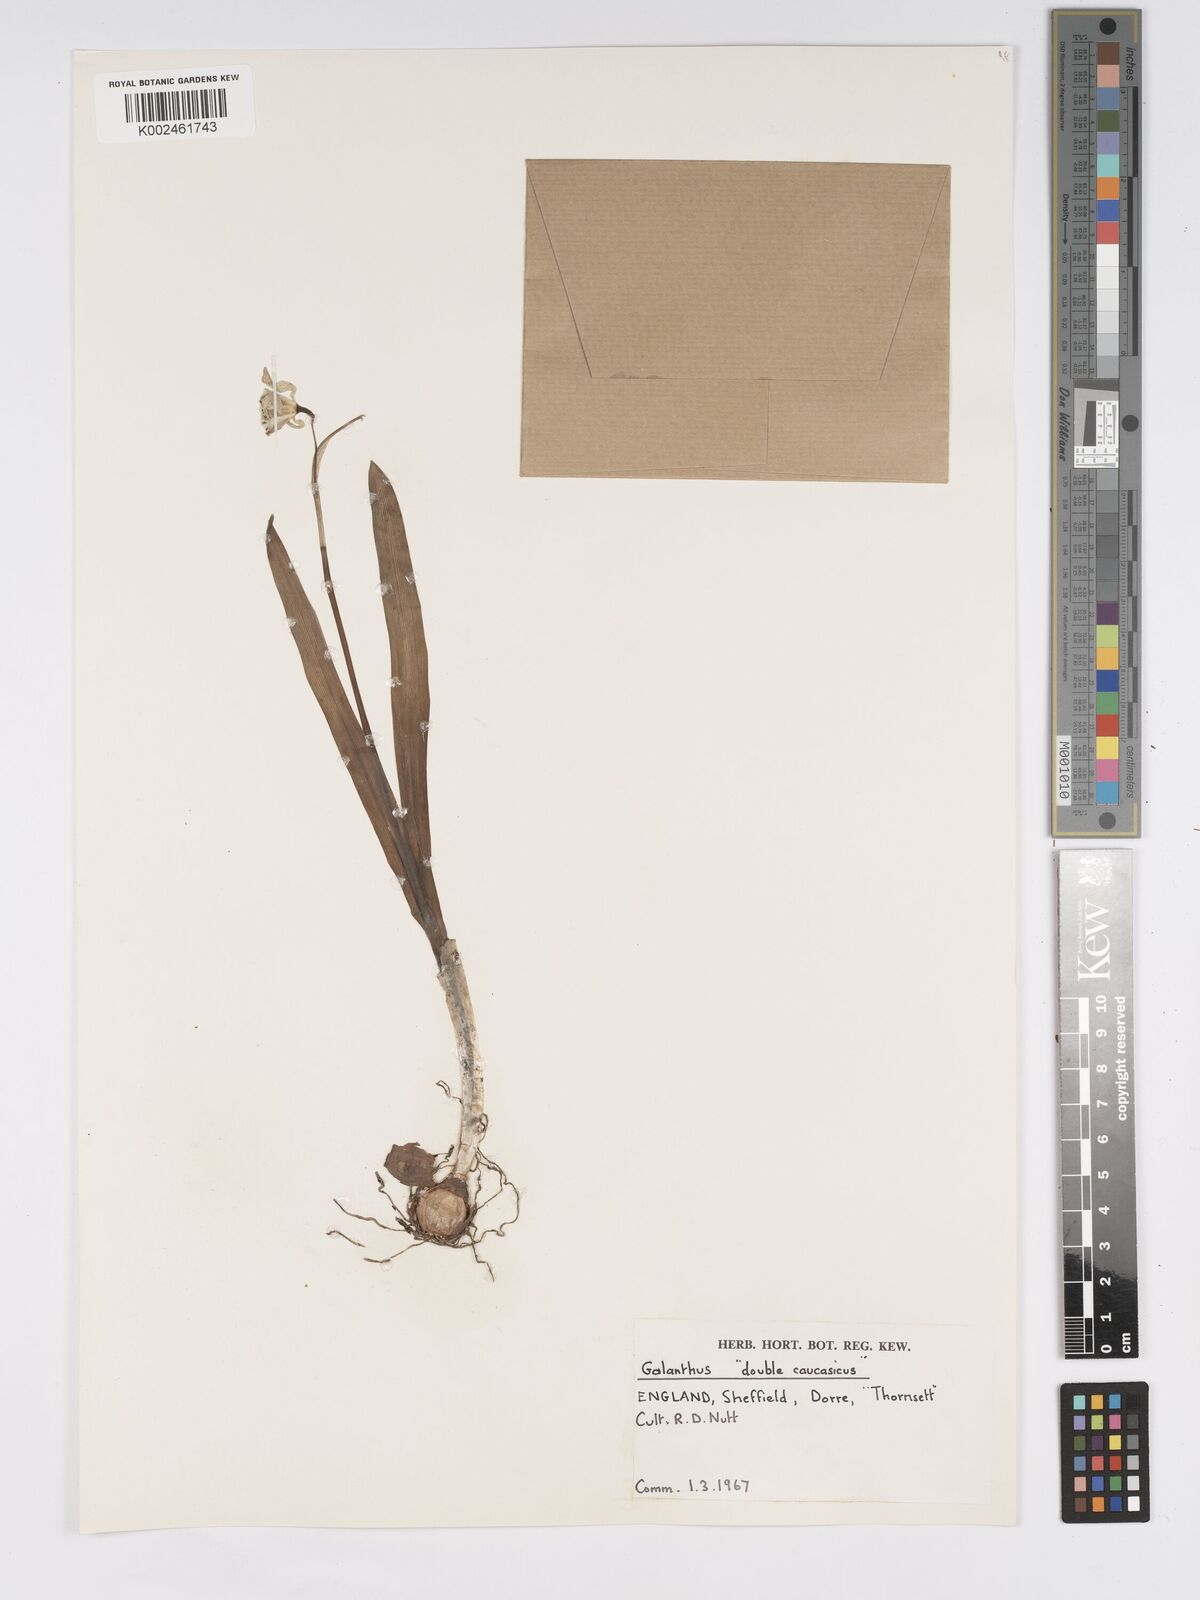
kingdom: Plantae
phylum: Tracheophyta
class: Liliopsida
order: Asparagales
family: Amaryllidaceae
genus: Galanthus
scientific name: Galanthus alpinus
